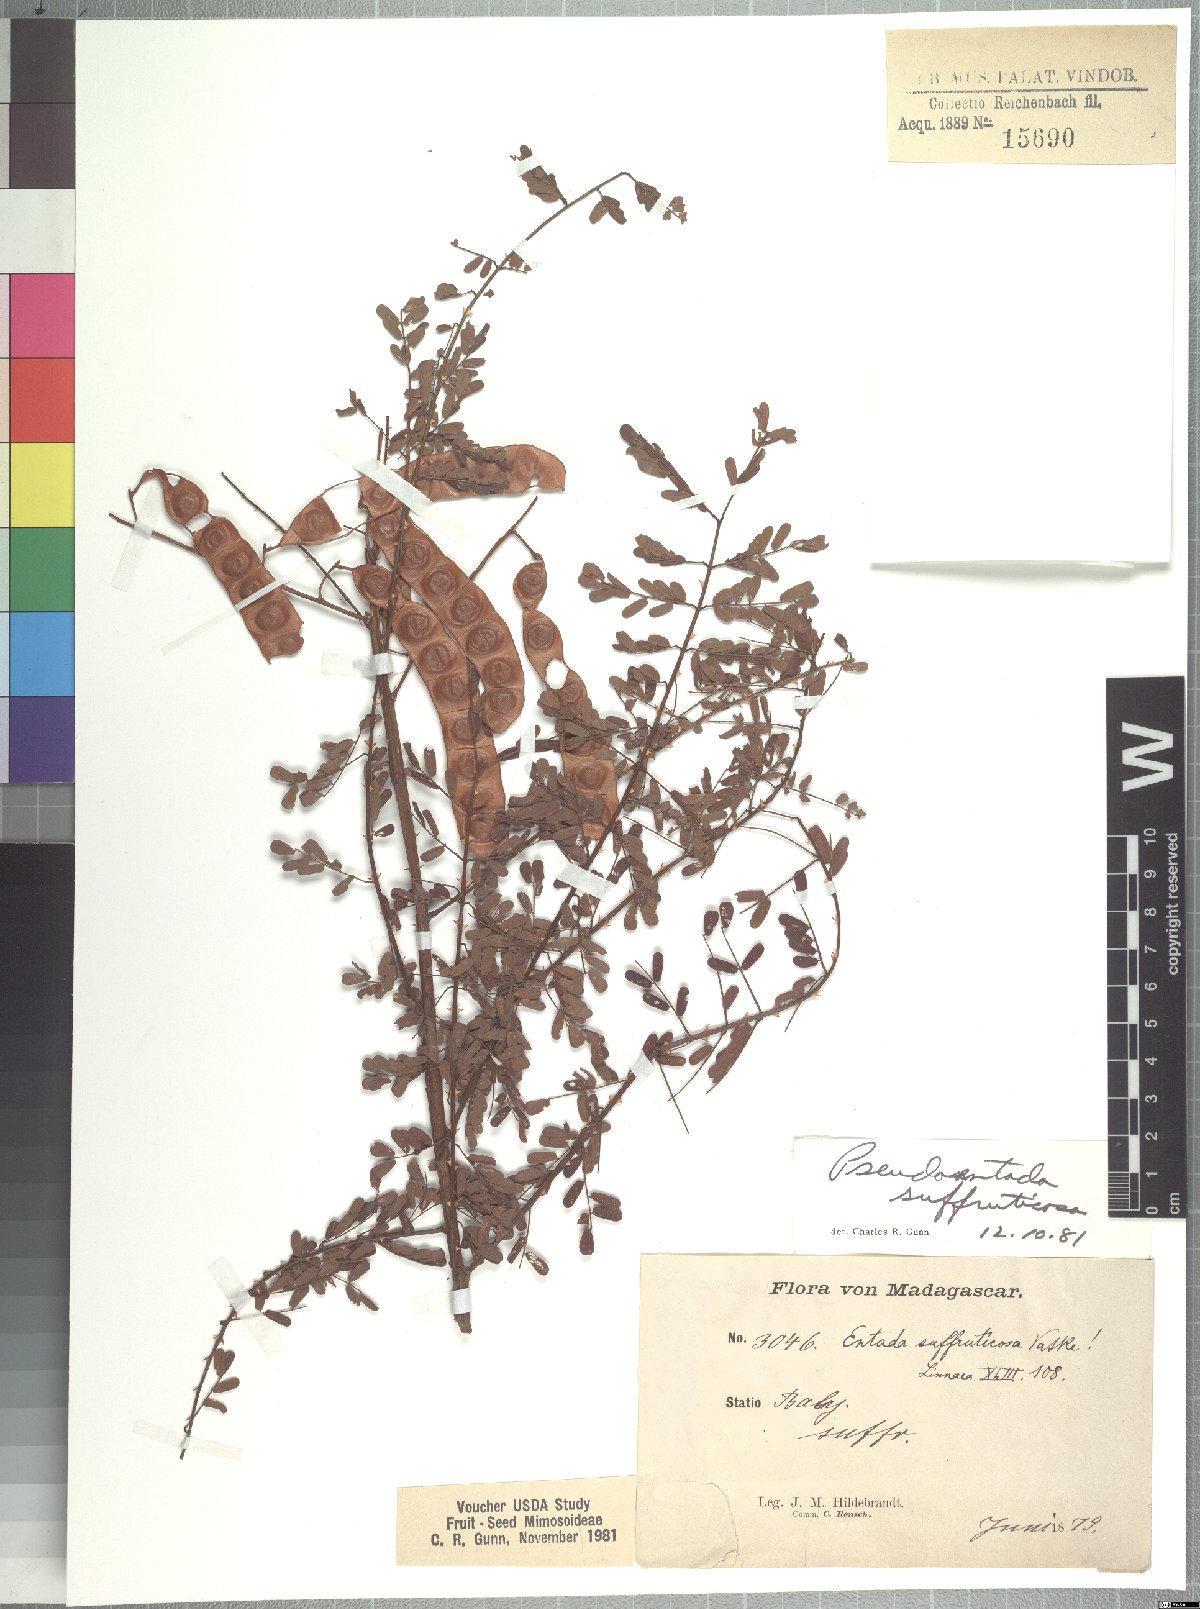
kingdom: Plantae
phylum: Tracheophyta
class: Magnoliopsida
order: Fabales
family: Fabaceae
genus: Mimosa
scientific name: Mimosa suffruticosa
